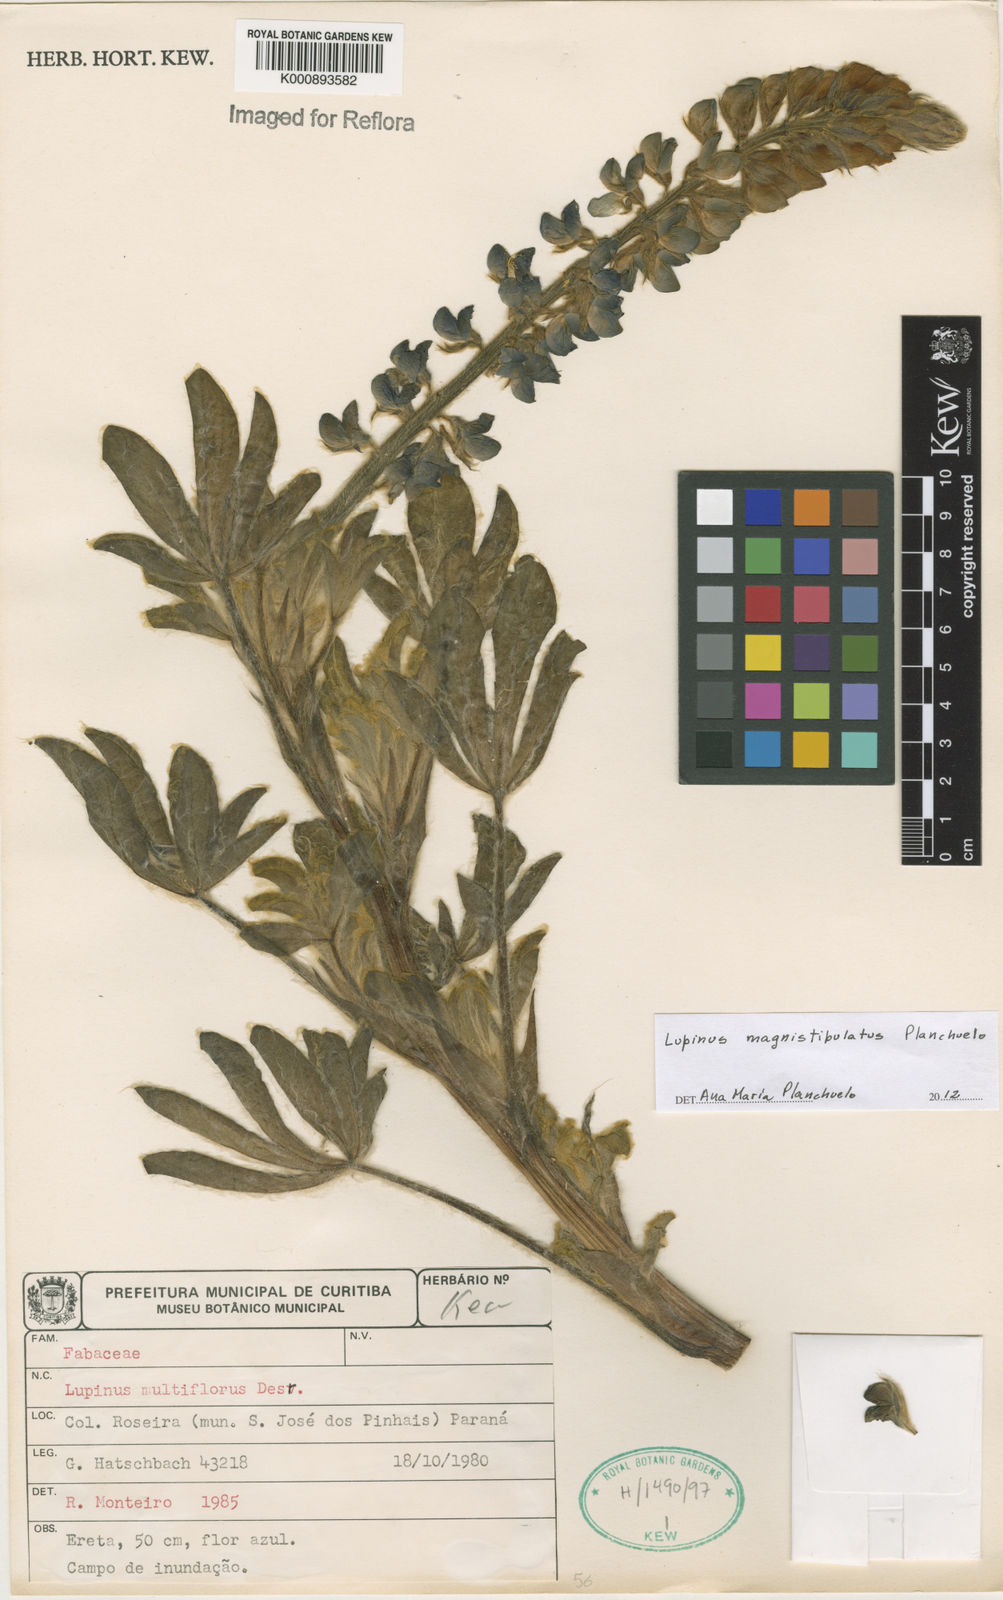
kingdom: Plantae
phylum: Tracheophyta
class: Magnoliopsida
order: Fabales
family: Fabaceae
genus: Lupinus
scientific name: Lupinus magnistipulatus
